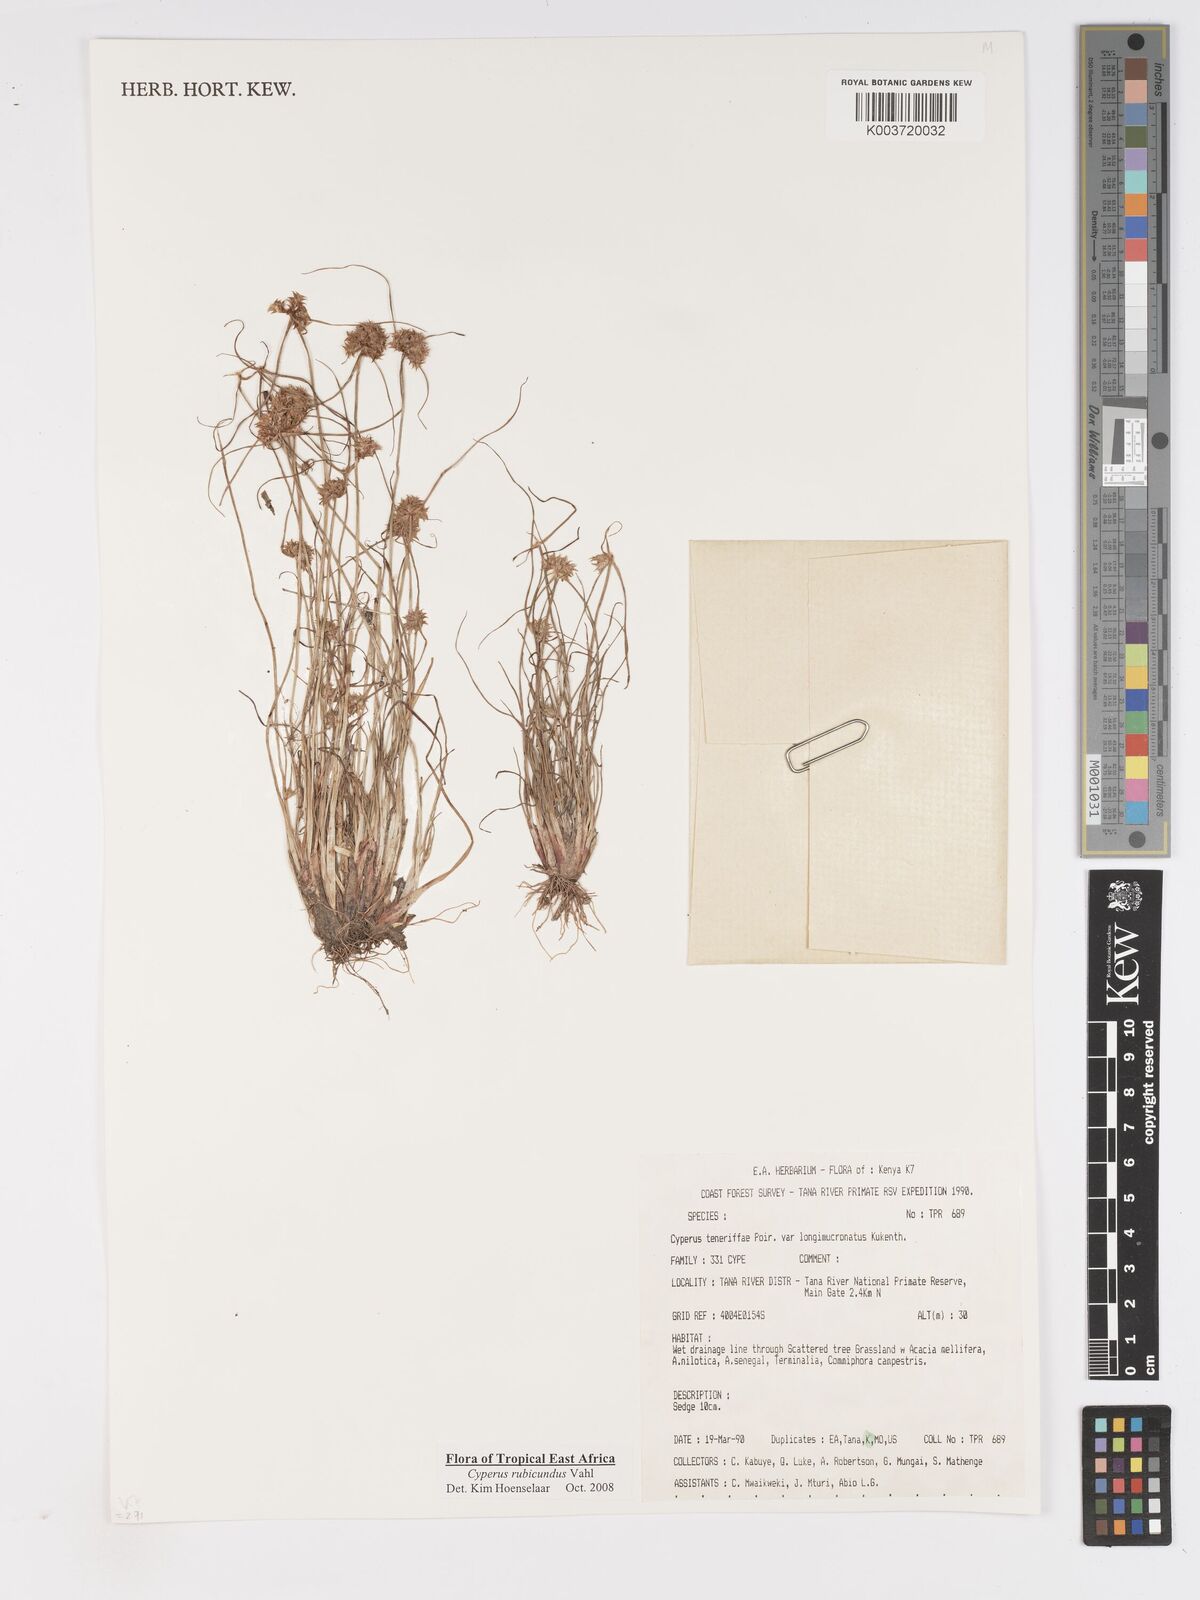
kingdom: Plantae
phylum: Tracheophyta
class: Liliopsida
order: Poales
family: Cyperaceae
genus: Cyperus
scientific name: Cyperus rubicundus
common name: Coco-grass
